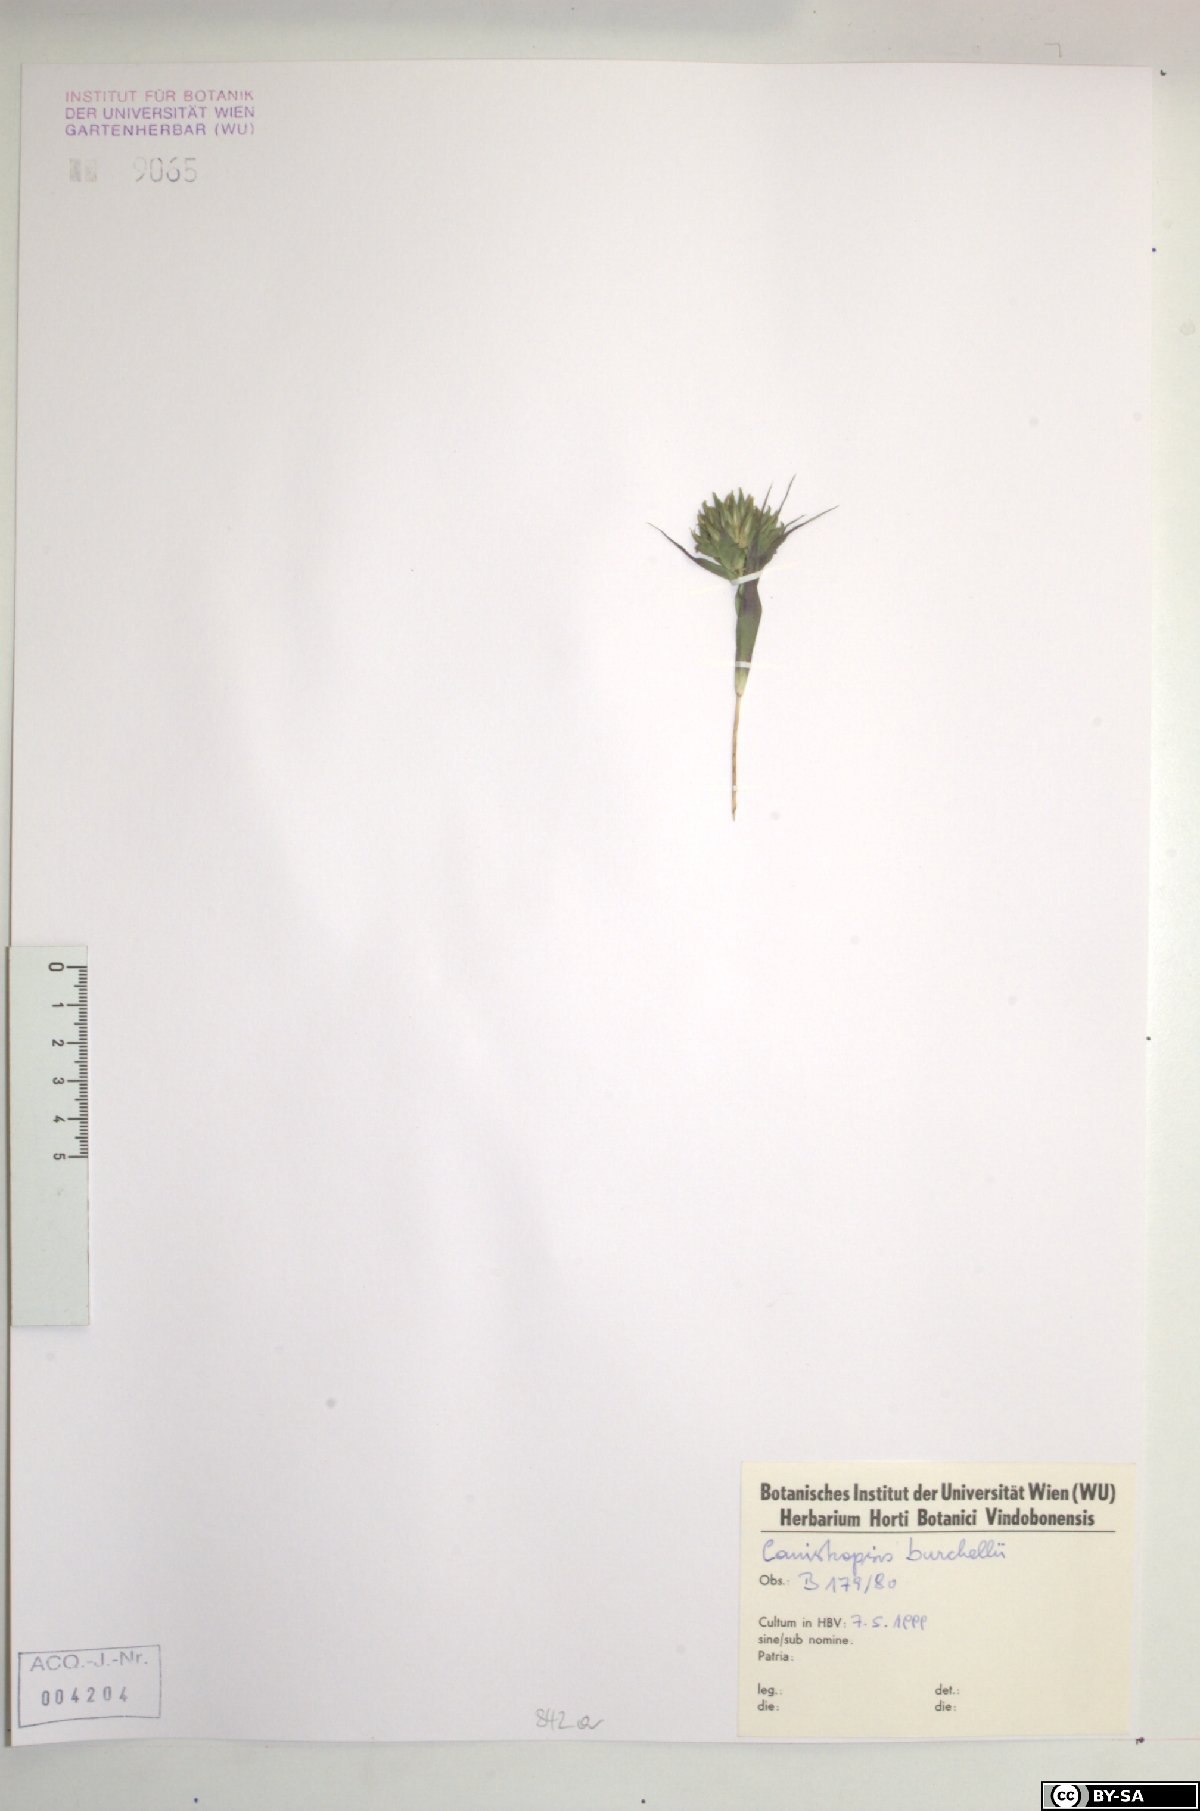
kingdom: Plantae
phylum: Tracheophyta
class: Liliopsida
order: Poales
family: Bromeliaceae
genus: Canistropsis
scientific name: Canistropsis burchellii
